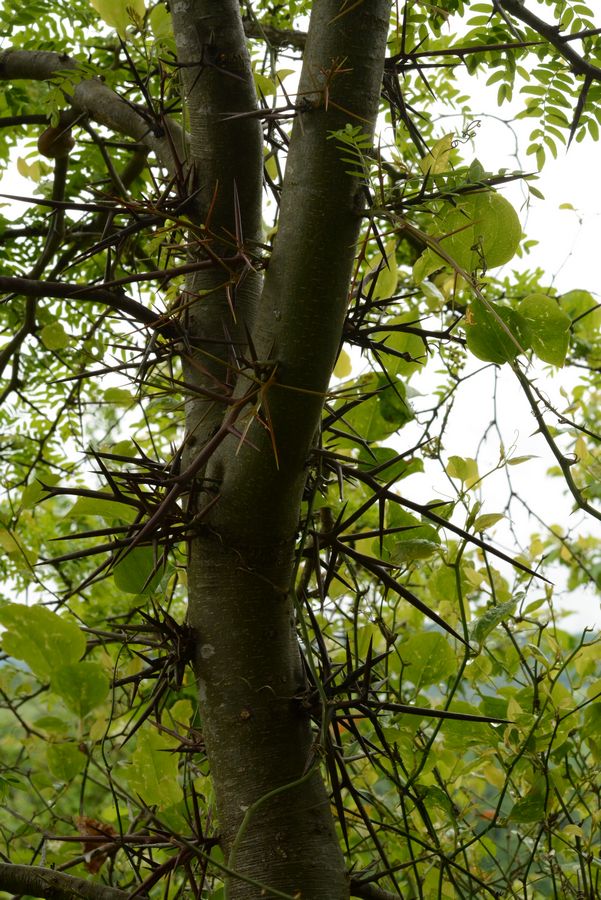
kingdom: Plantae
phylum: Tracheophyta
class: Magnoliopsida
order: Fabales
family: Fabaceae
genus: Gleditsia
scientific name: Gleditsia triacanthos
